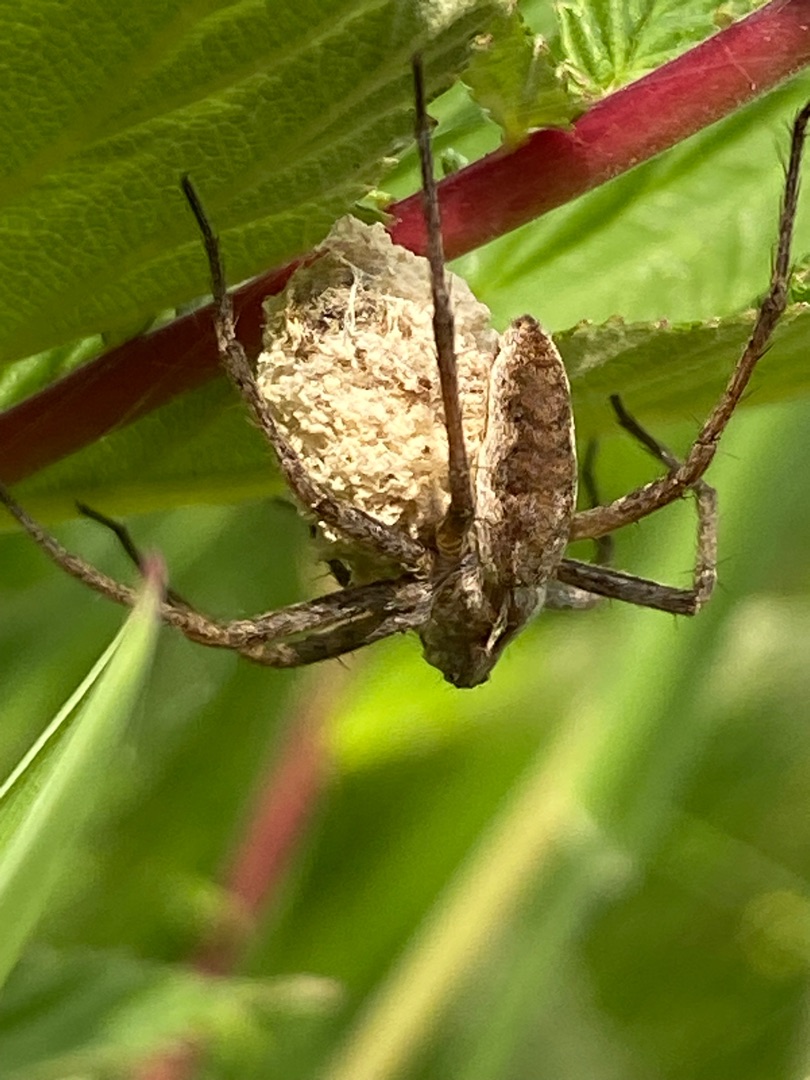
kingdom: Animalia
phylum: Arthropoda
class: Arachnida
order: Araneae
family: Pisauridae
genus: Pisaura
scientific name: Pisaura mirabilis
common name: Almindelig rovedderkop
